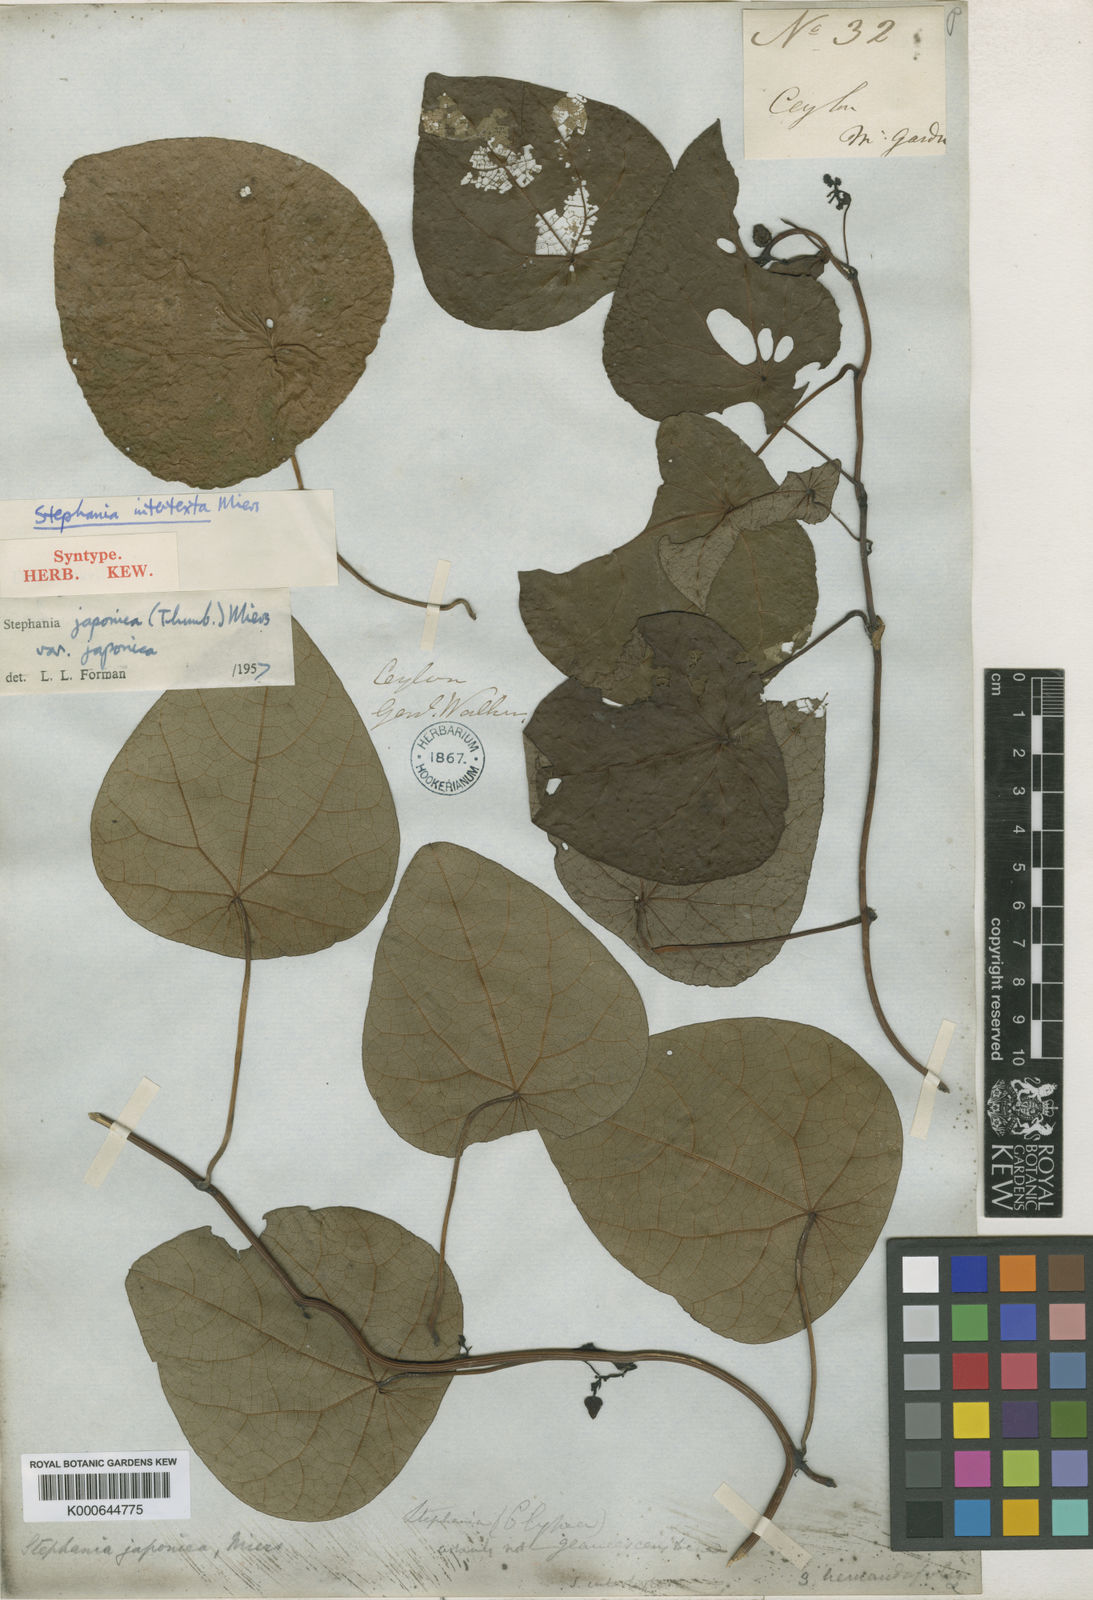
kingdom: Plantae
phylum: Tracheophyta
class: Magnoliopsida
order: Ranunculales
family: Menispermaceae
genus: Stephania
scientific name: Stephania japonica
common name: Snake vine
